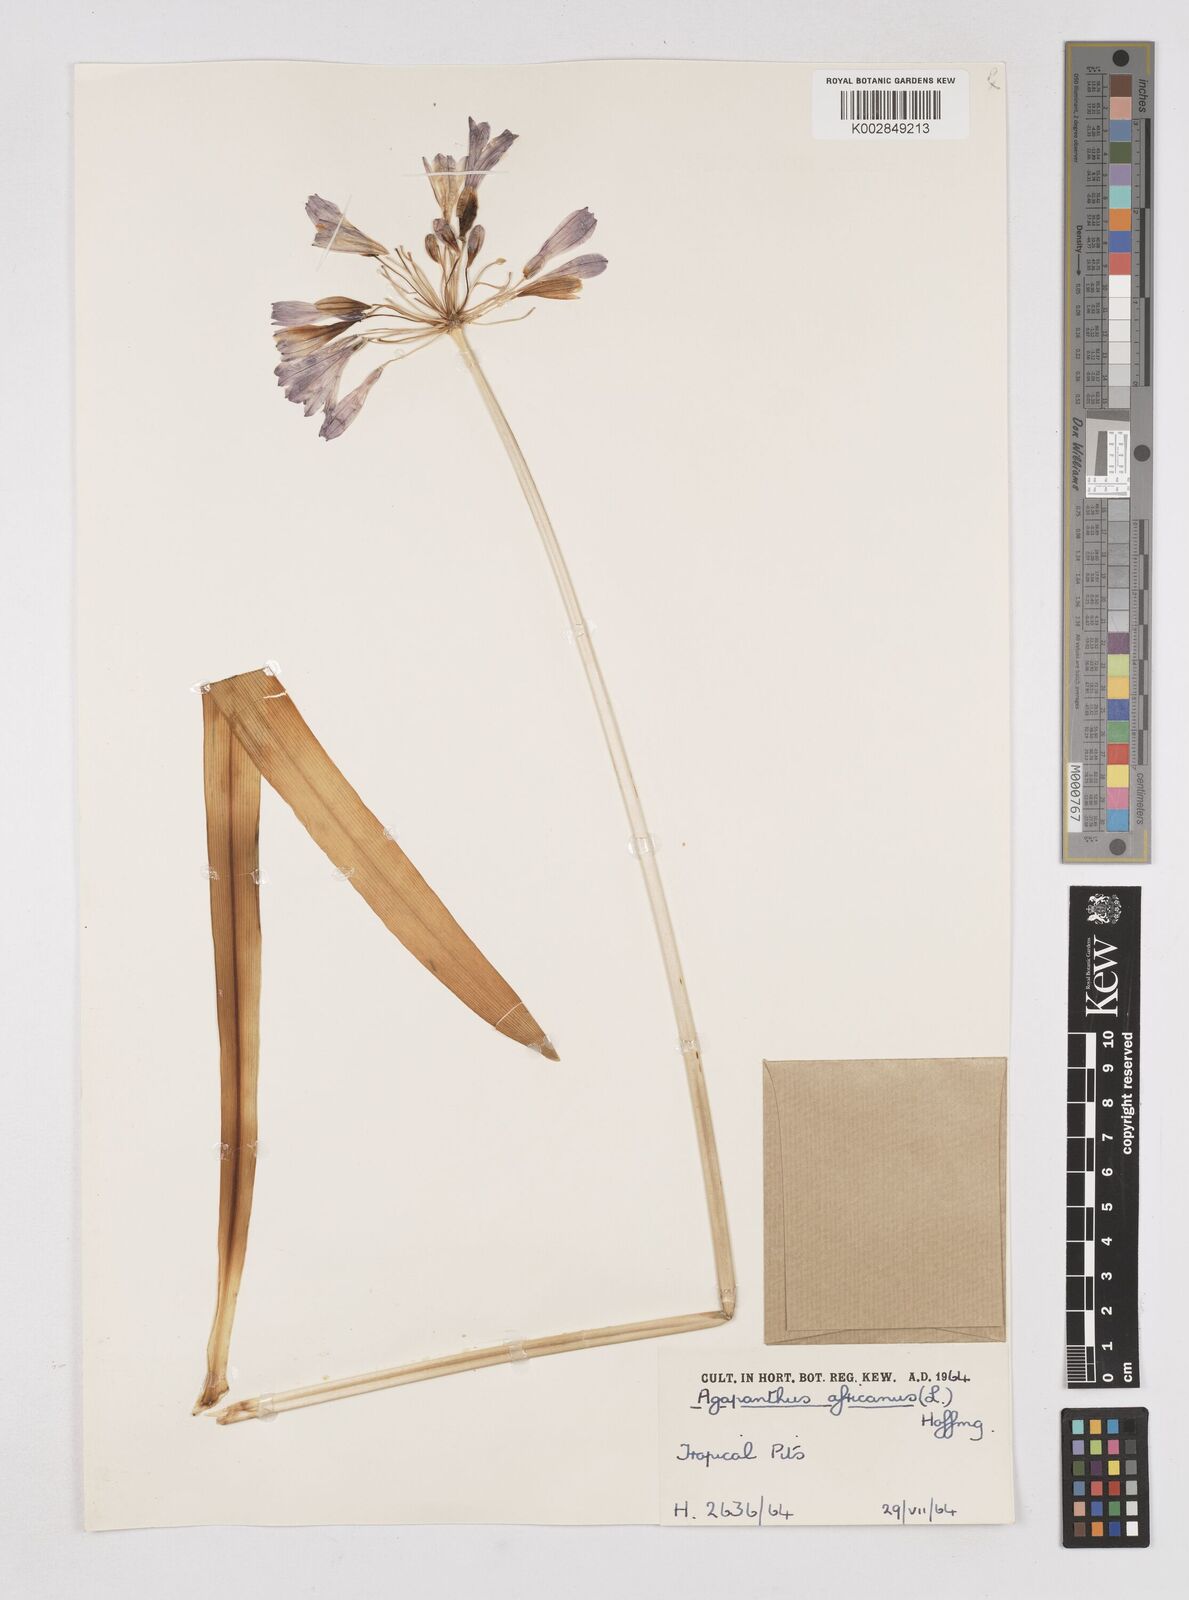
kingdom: Plantae
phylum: Tracheophyta
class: Liliopsida
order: Asparagales
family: Amaryllidaceae
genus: Agapanthus
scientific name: Agapanthus africanus
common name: Lily-of-the-nile
